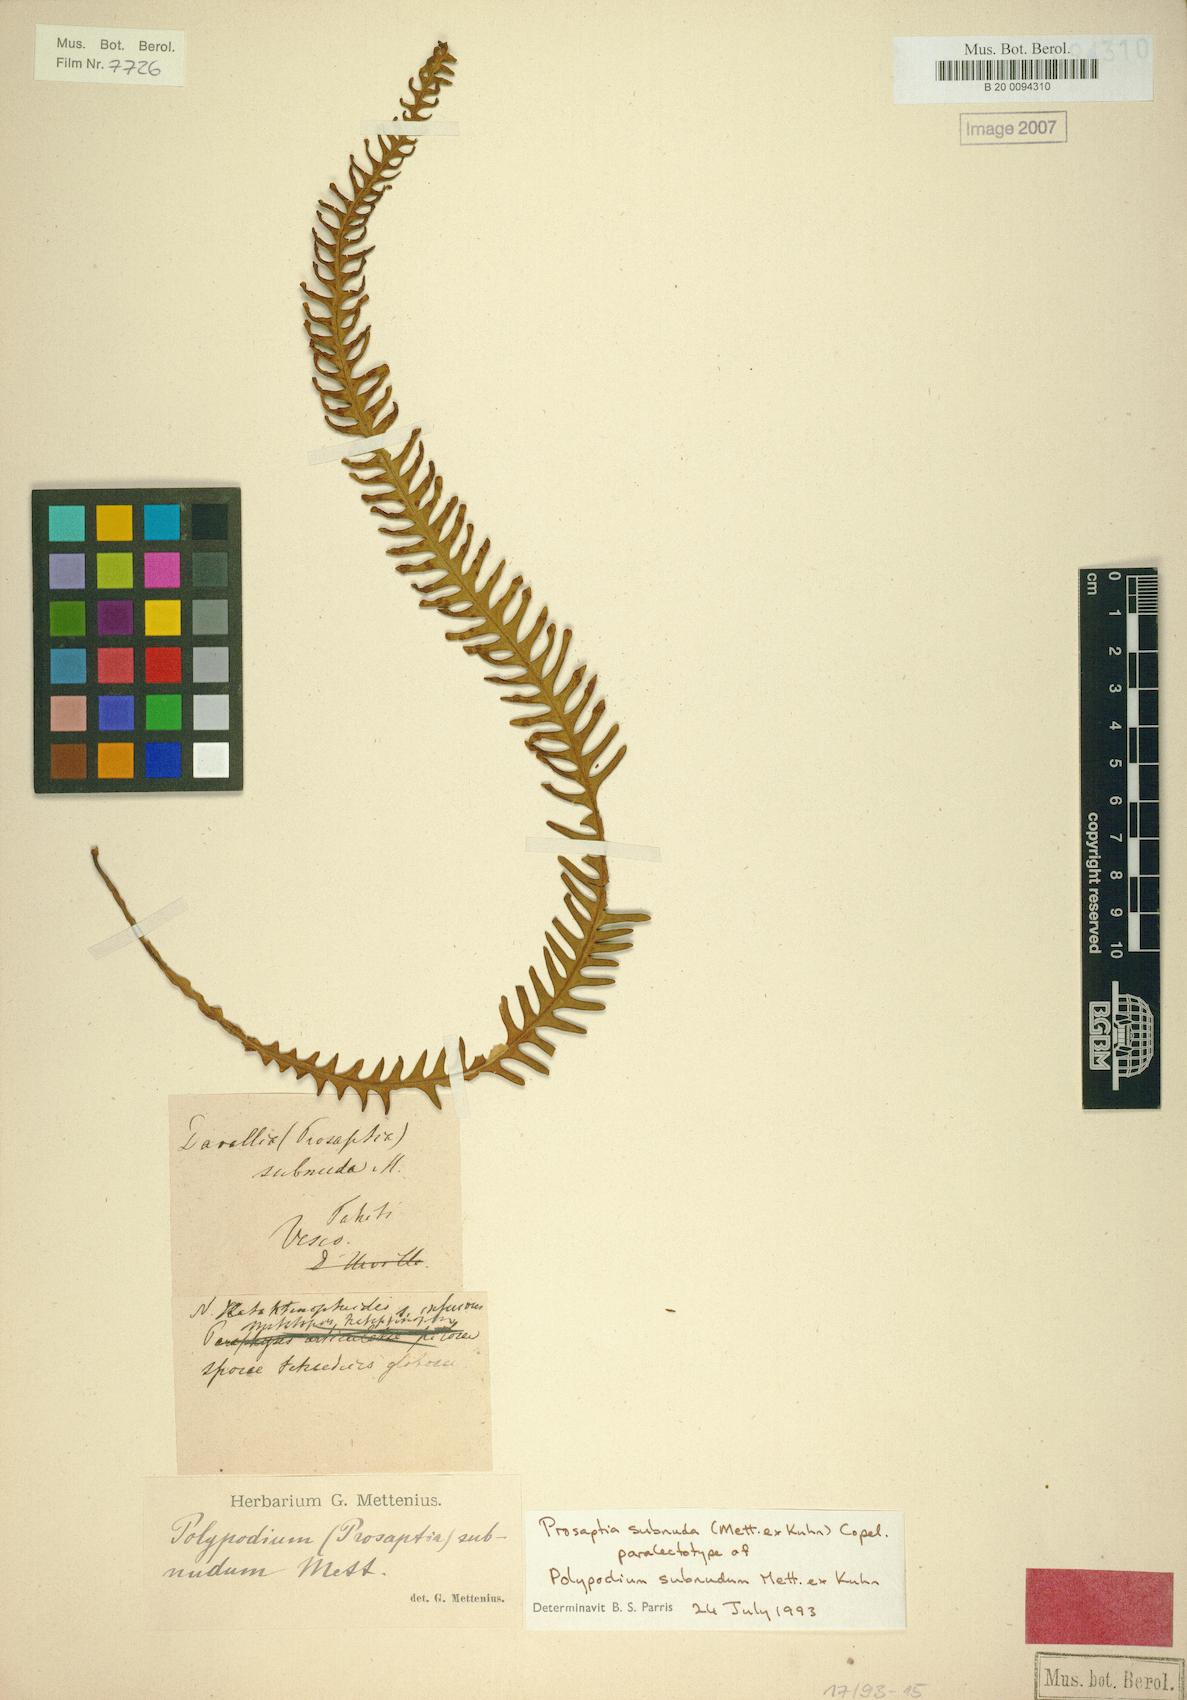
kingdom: Plantae
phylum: Tracheophyta
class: Polypodiopsida
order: Polypodiales
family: Polypodiaceae
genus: Prosaptia
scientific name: Prosaptia subnuda
